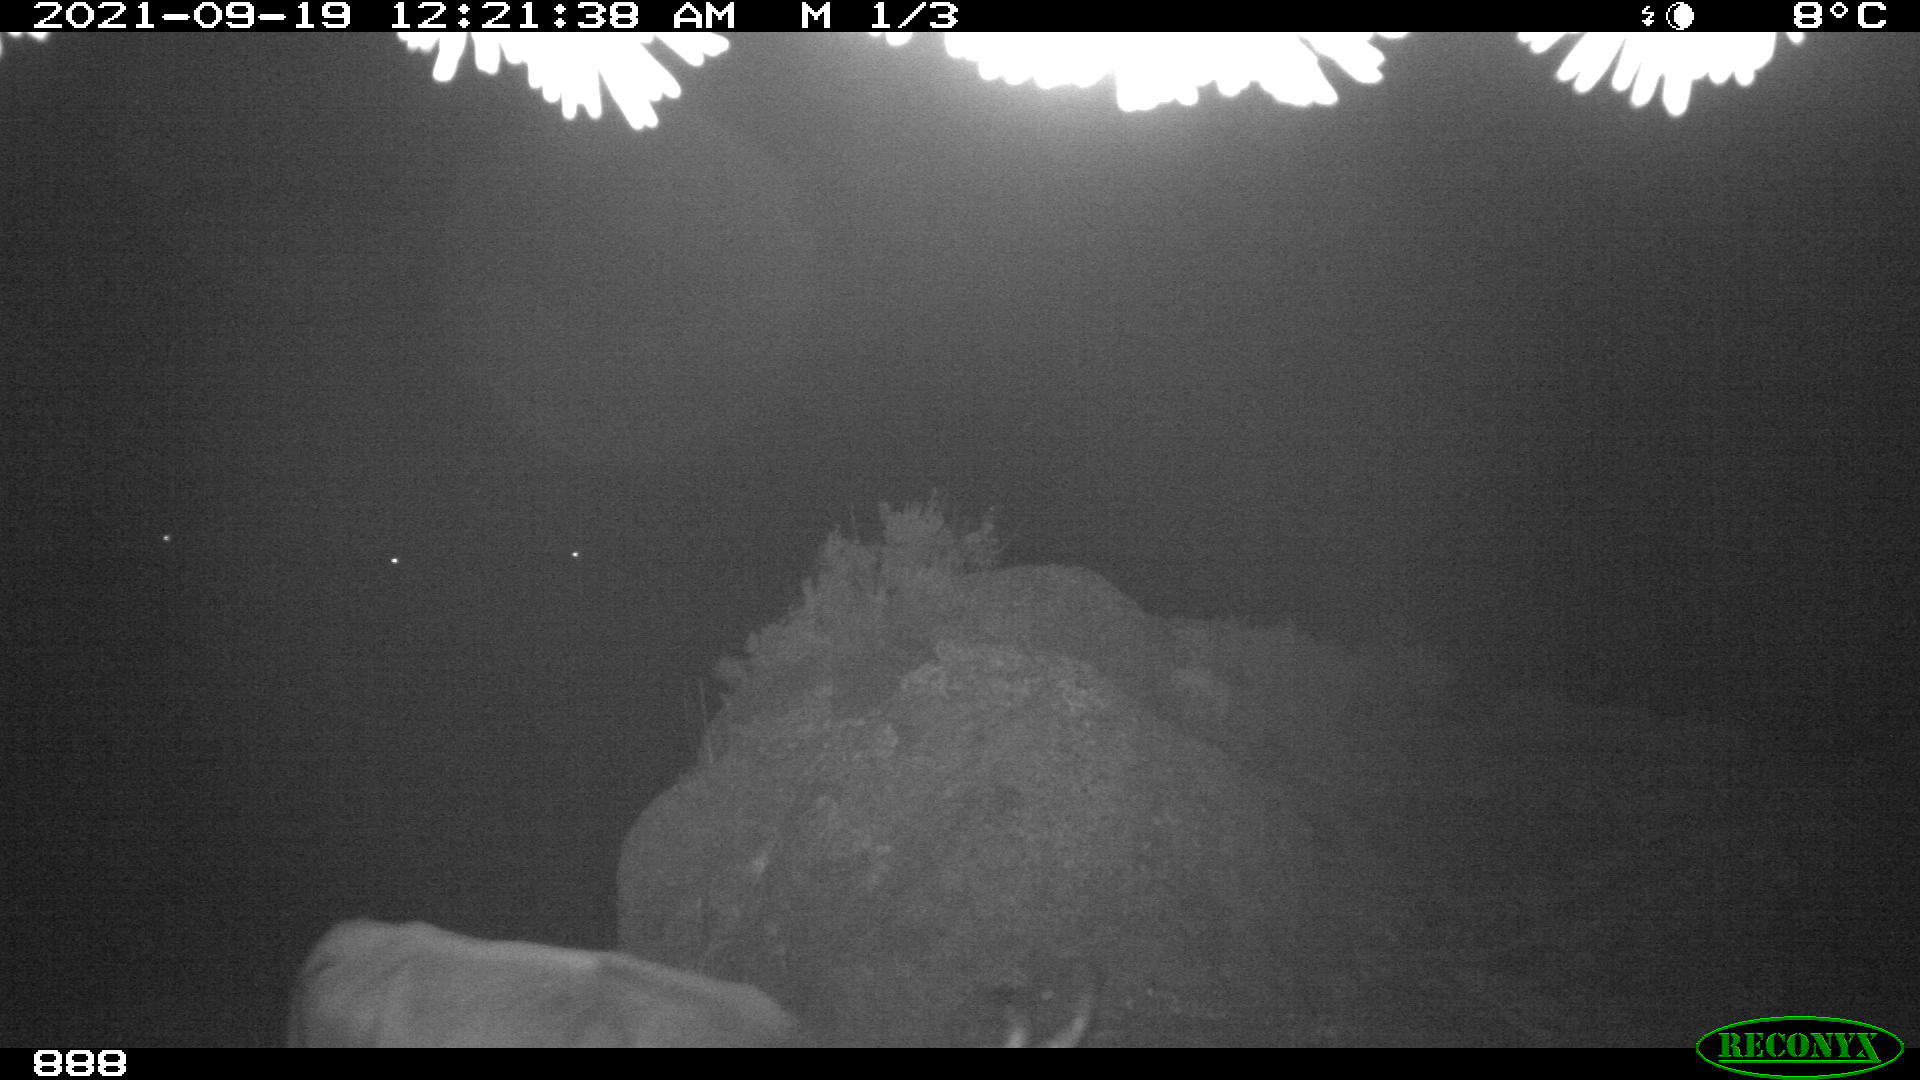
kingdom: Animalia
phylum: Chordata
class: Mammalia
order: Artiodactyla
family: Bovidae
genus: Bos
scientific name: Bos taurus
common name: Domesticated cattle
